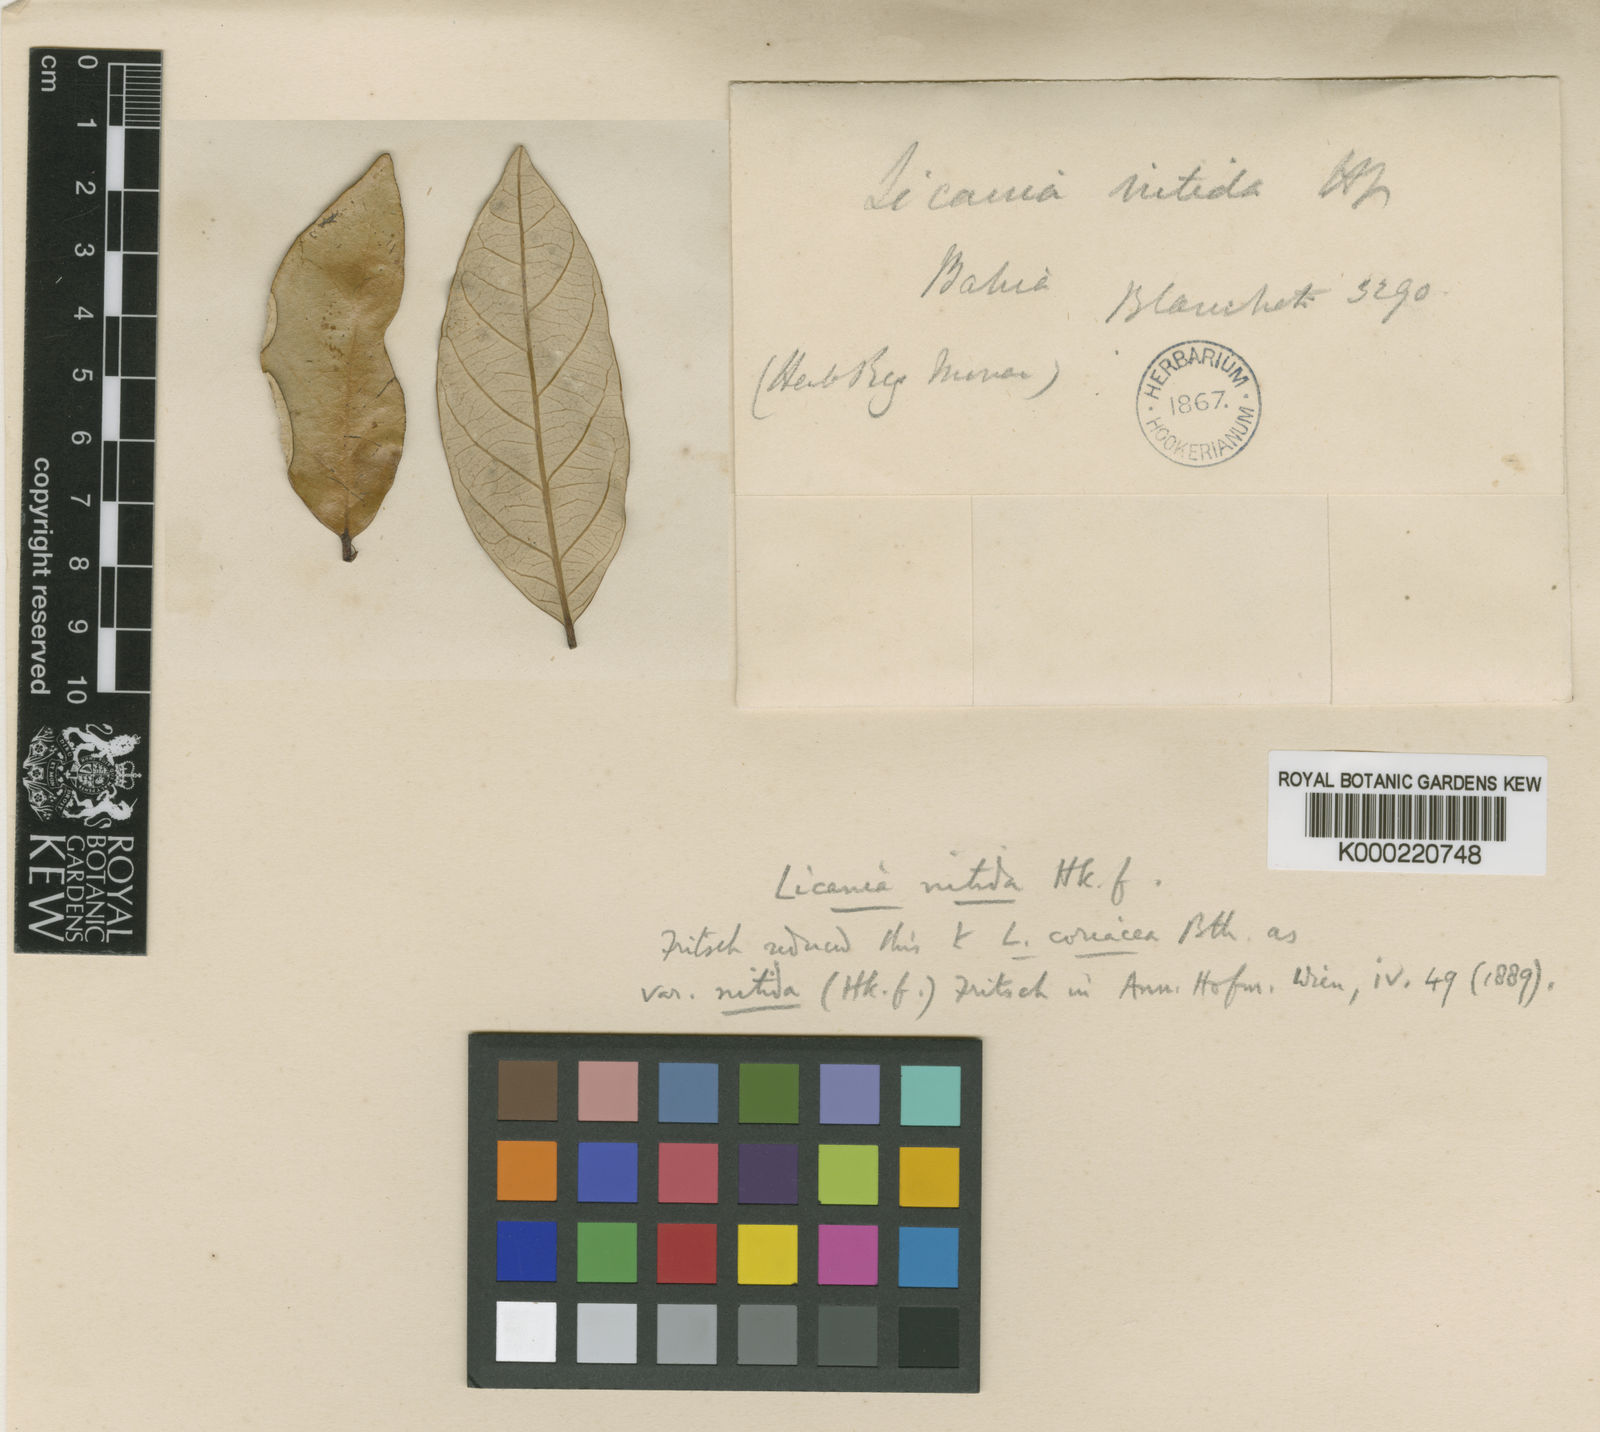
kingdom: Plantae
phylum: Tracheophyta
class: Magnoliopsida
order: Malpighiales
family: Chrysobalanaceae
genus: Licania
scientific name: Licania nitida
